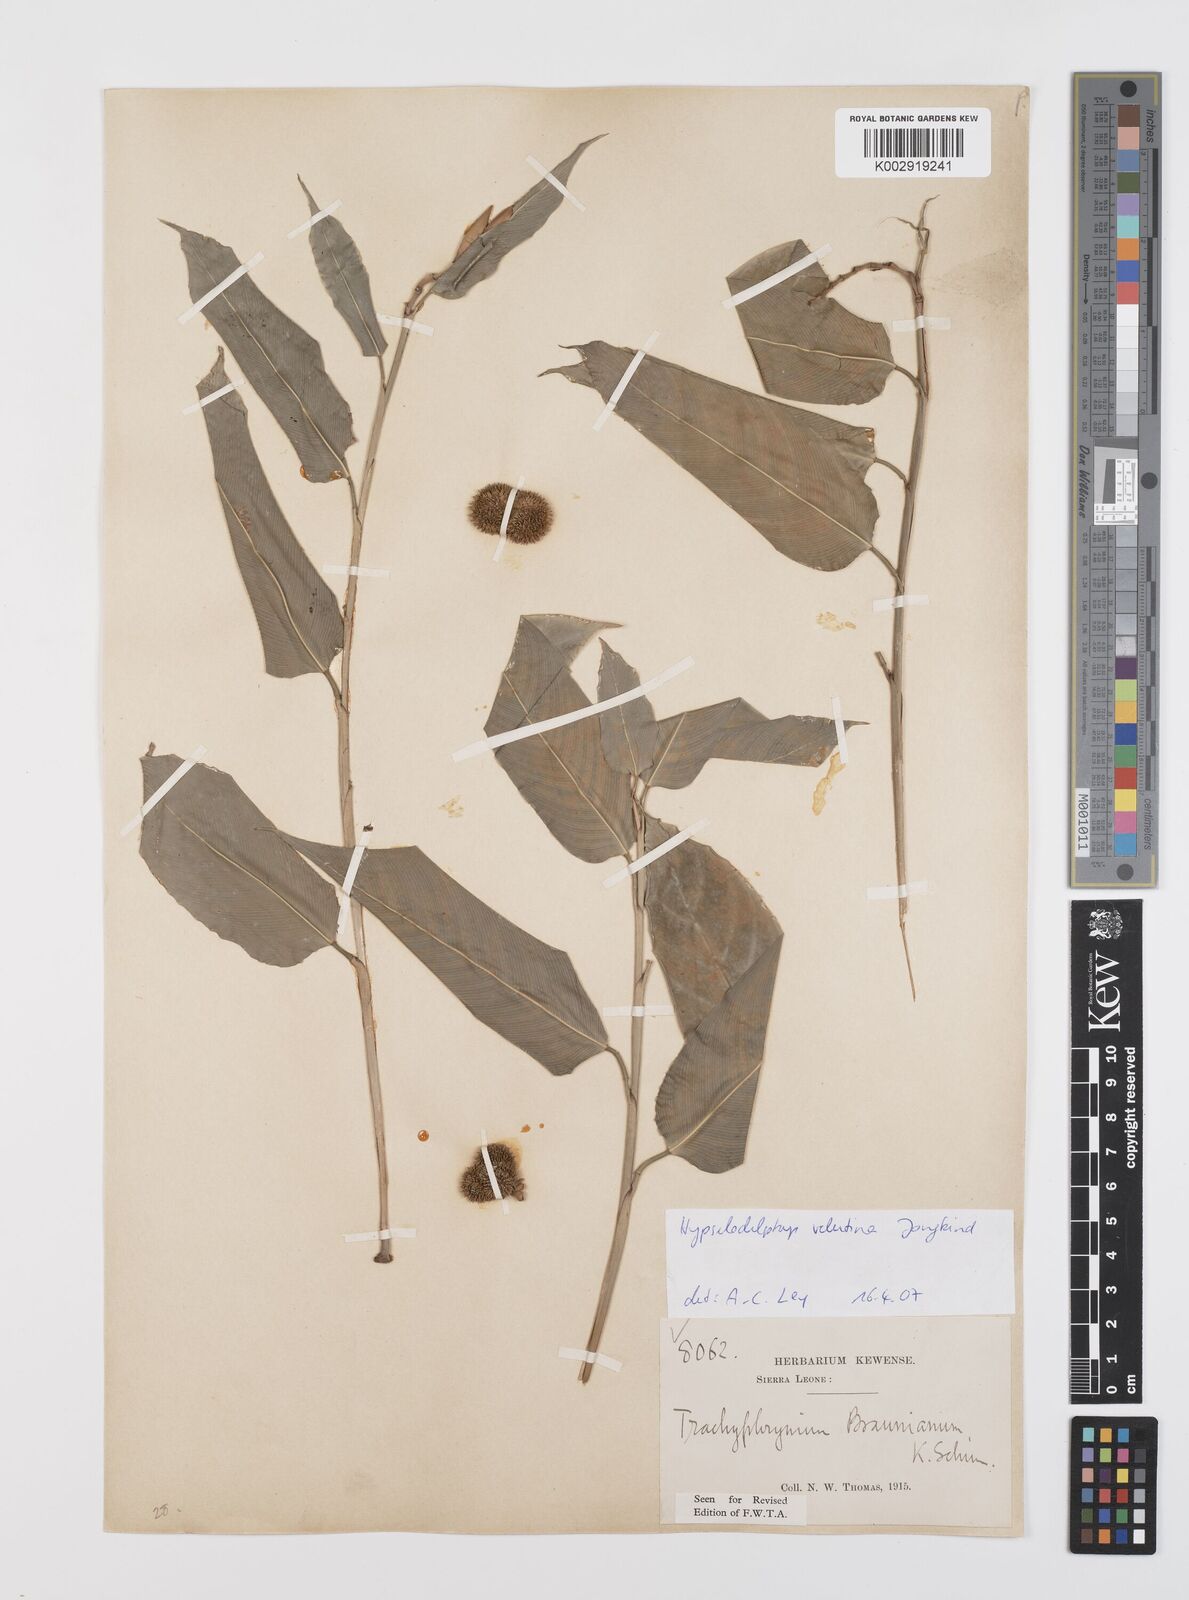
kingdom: Plantae
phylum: Tracheophyta
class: Liliopsida
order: Zingiberales
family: Marantaceae
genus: Hypselodelphys
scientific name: Hypselodelphys velutina
